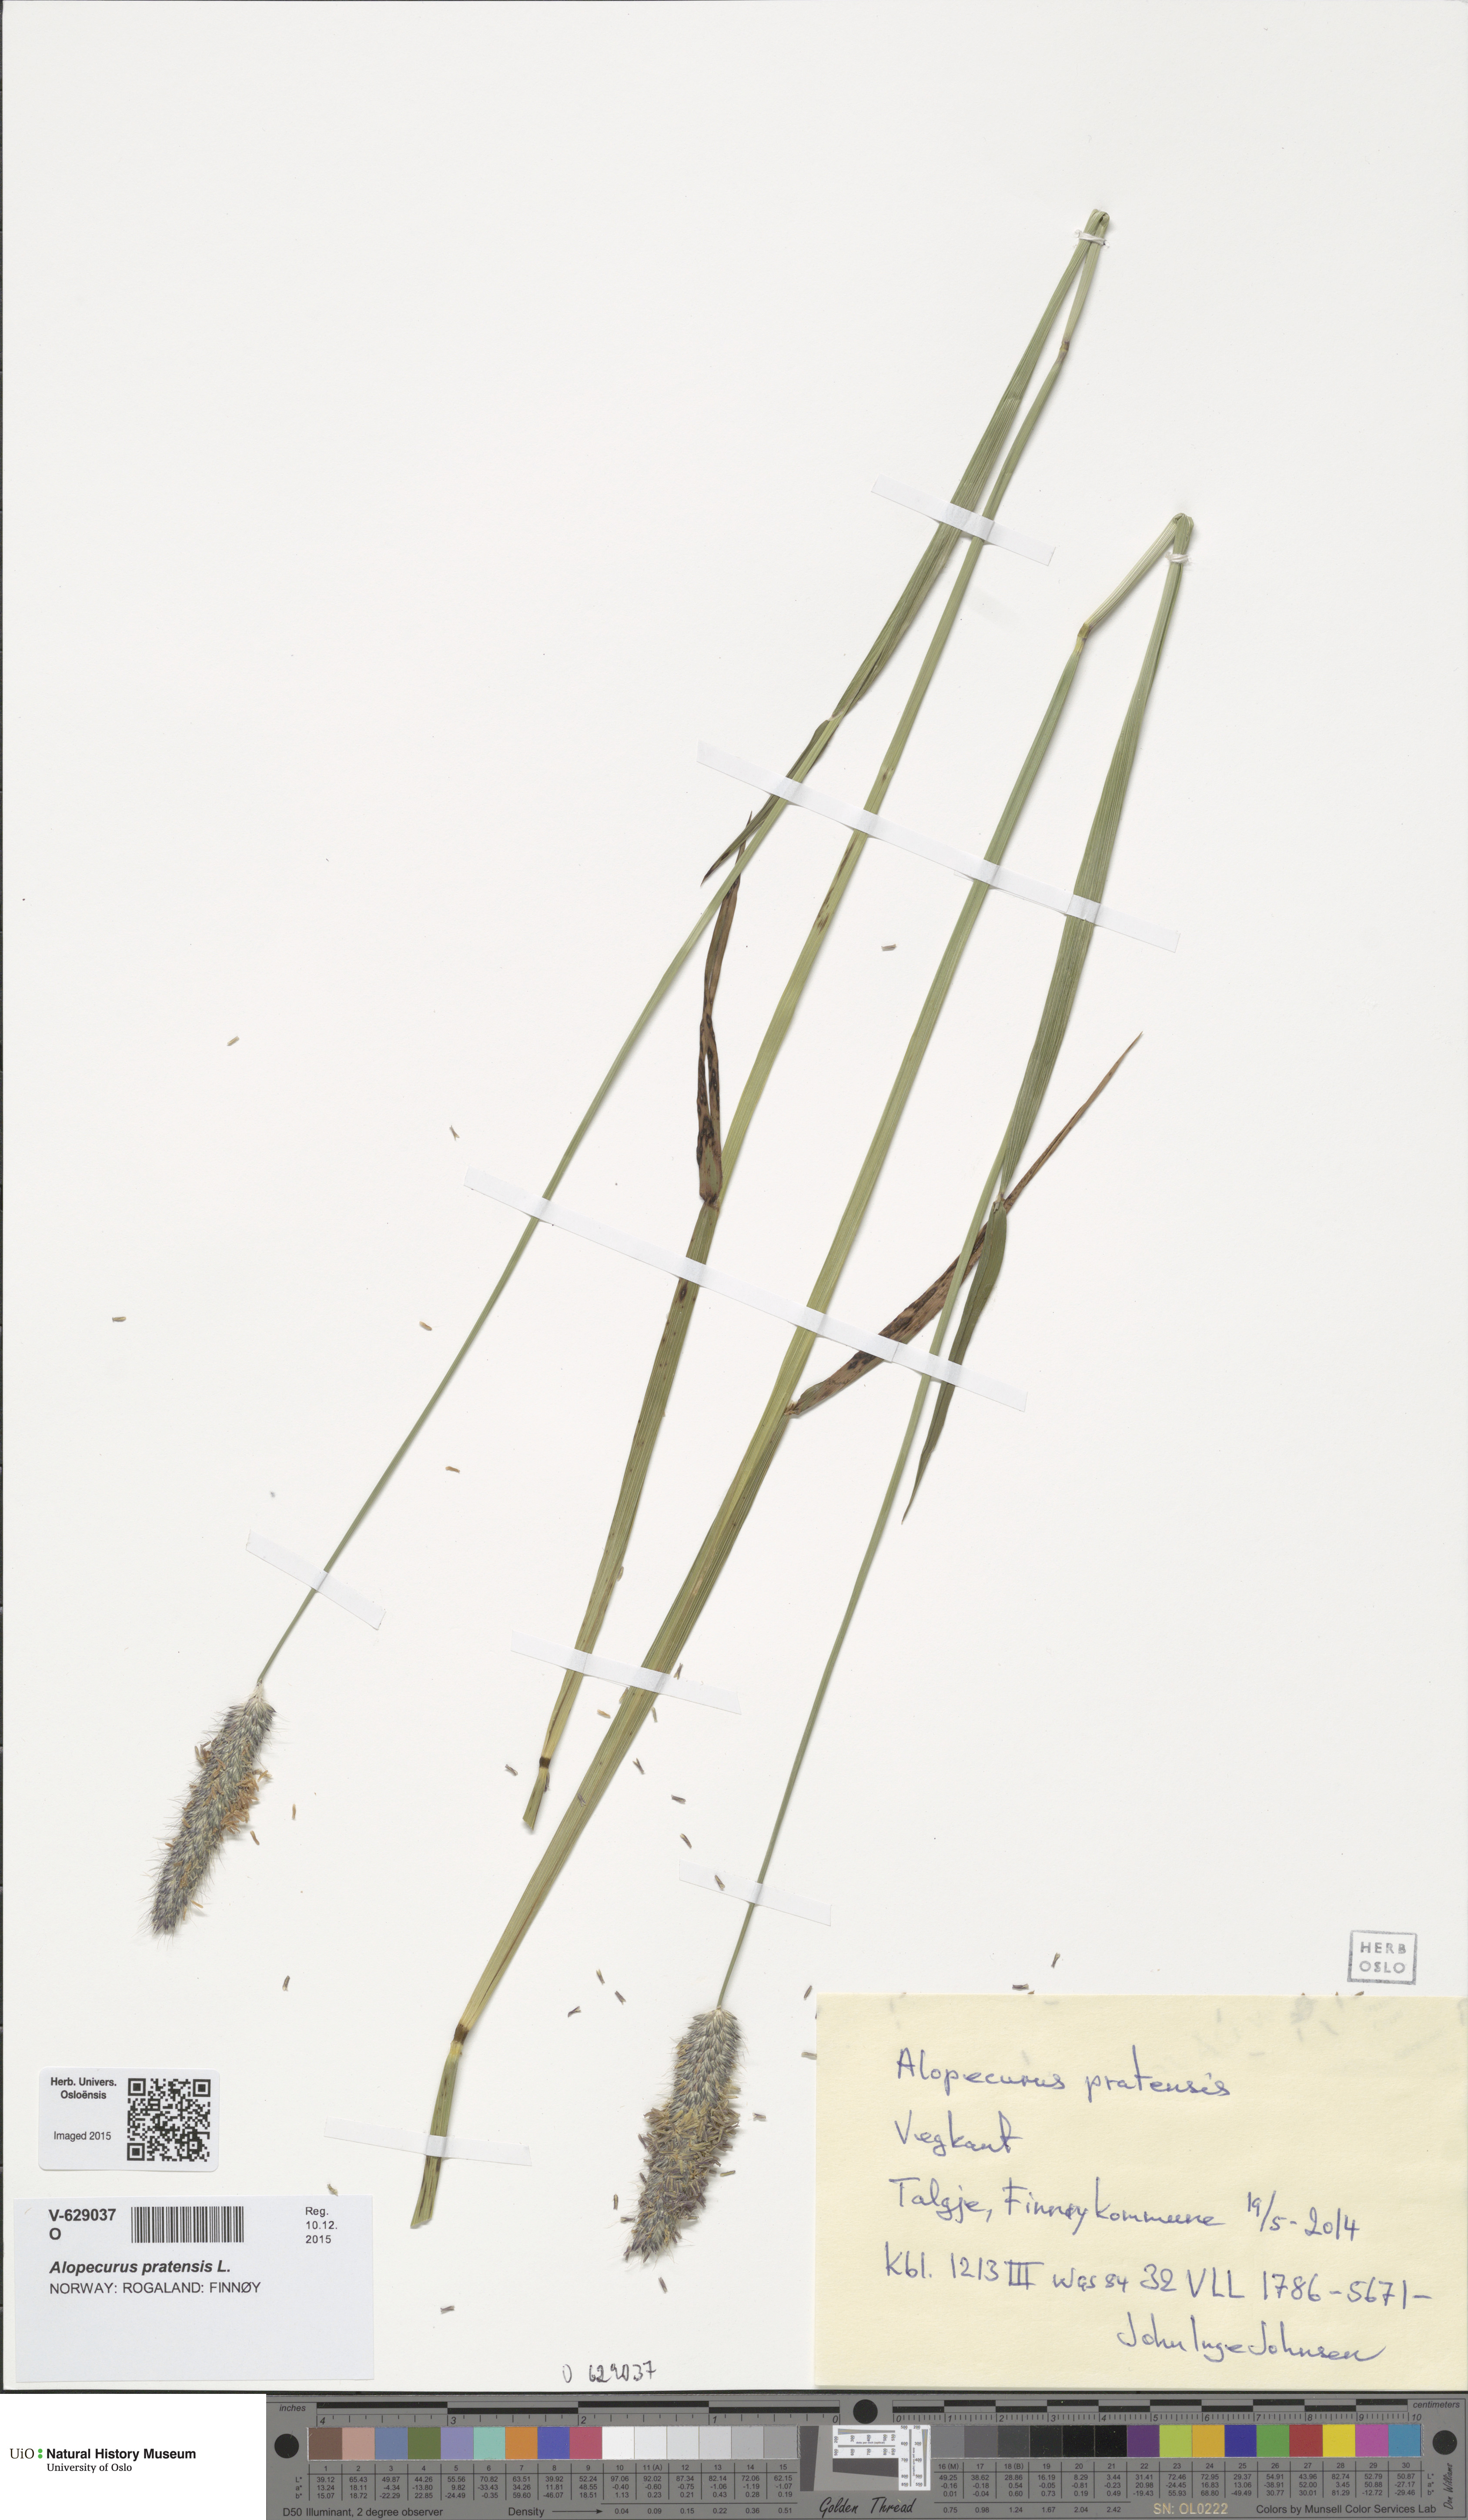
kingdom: Plantae
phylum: Tracheophyta
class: Liliopsida
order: Poales
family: Poaceae
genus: Alopecurus
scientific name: Alopecurus pratensis
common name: Meadow foxtail
